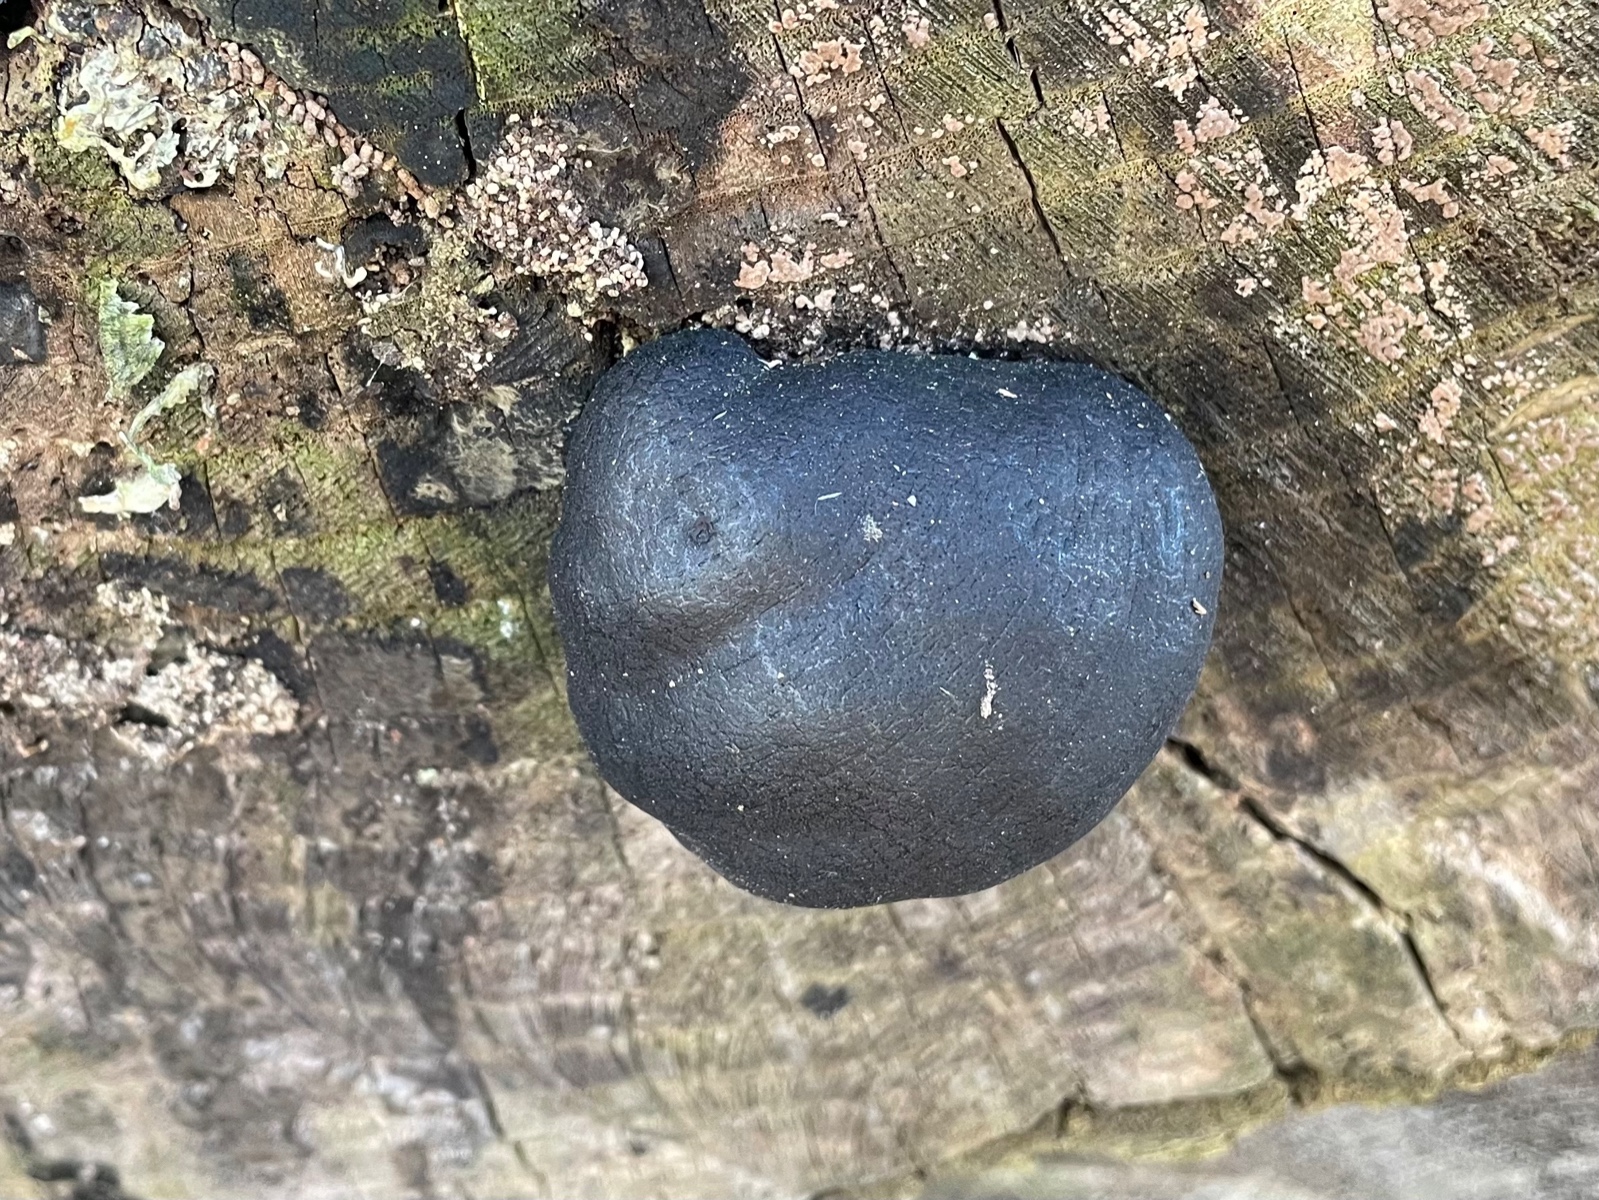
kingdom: Fungi
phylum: Ascomycota
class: Sordariomycetes
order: Xylariales
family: Hypoxylaceae
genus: Daldinia
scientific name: Daldinia concentrica
